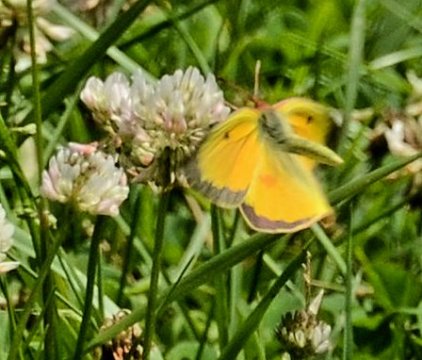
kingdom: Animalia
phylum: Arthropoda
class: Insecta
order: Lepidoptera
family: Pieridae
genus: Colias
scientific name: Colias eurytheme
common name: Orange Sulphur
